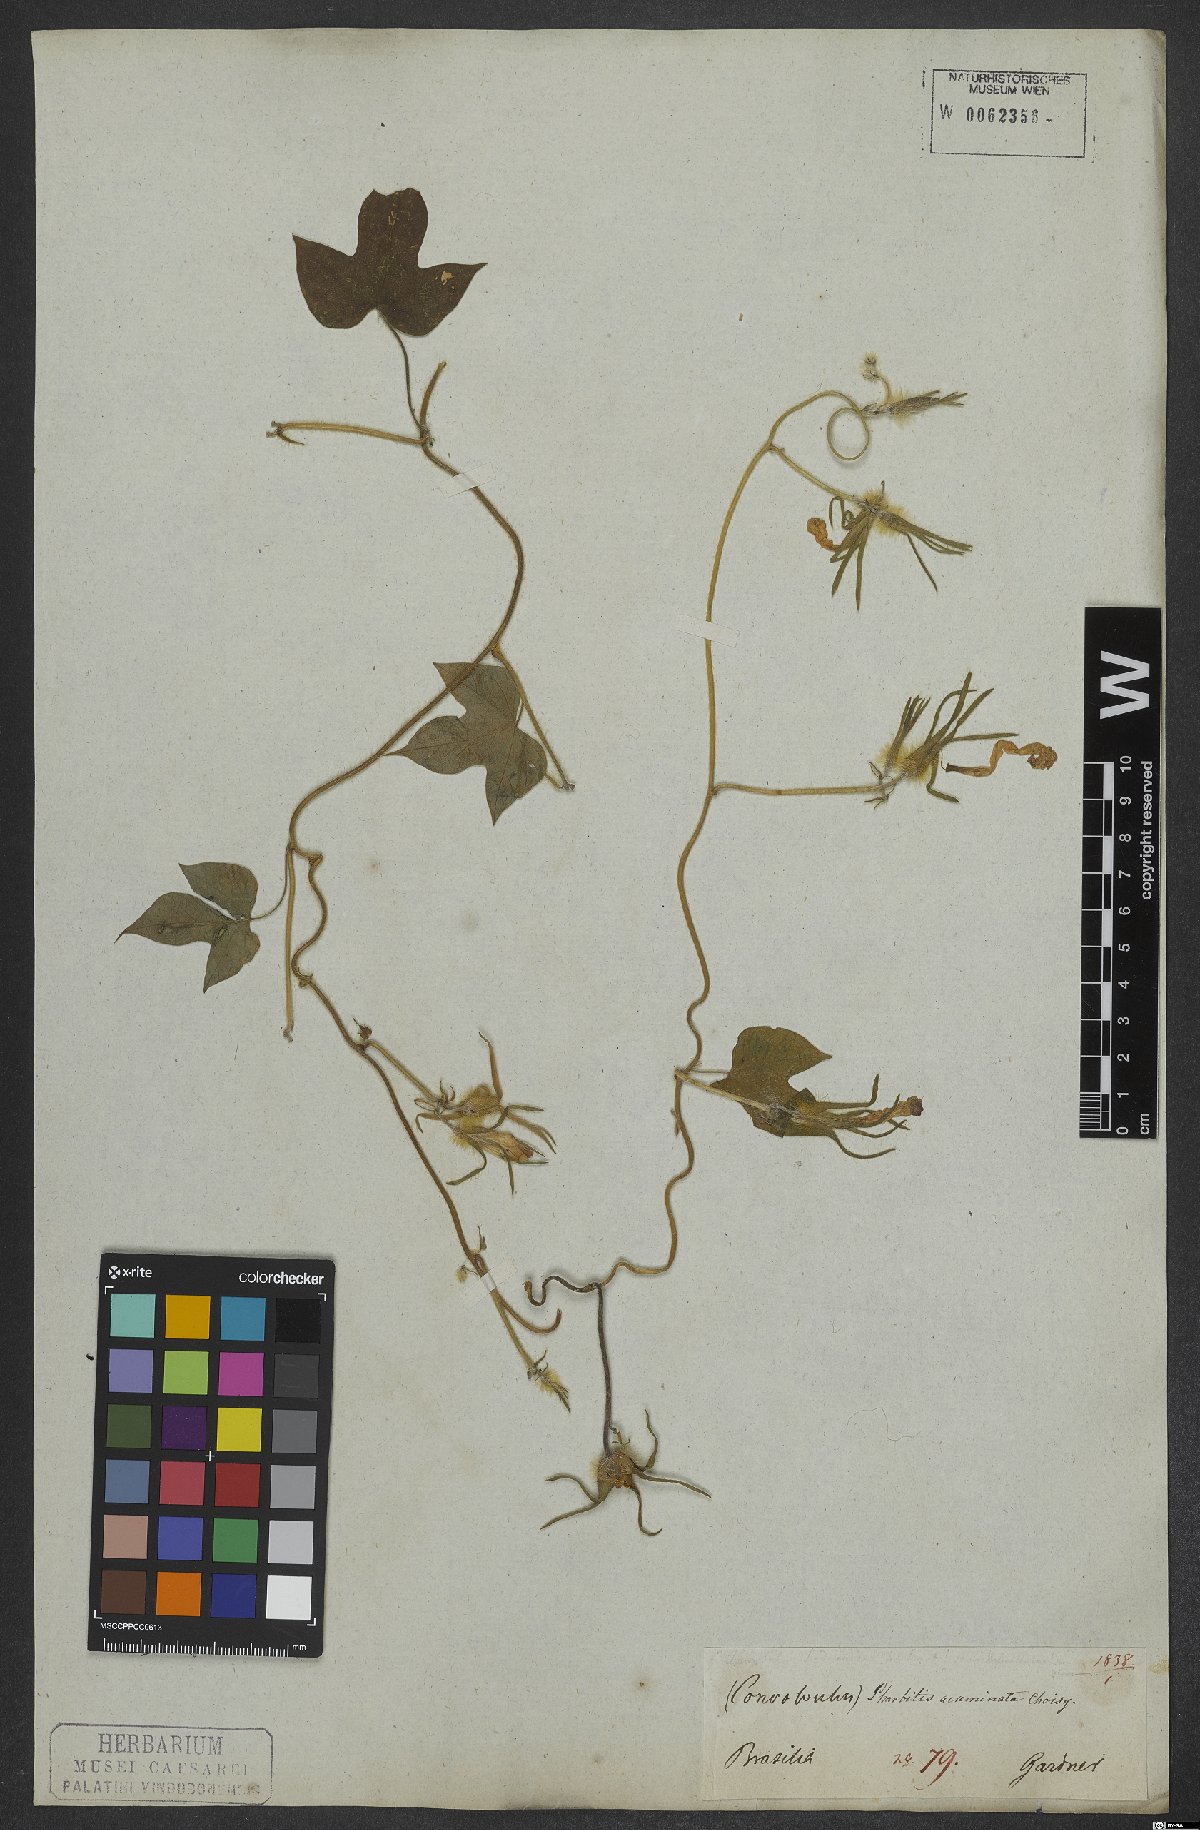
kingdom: Plantae
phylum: Tracheophyta
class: Magnoliopsida
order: Solanales
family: Convolvulaceae
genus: Merremia
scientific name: Merremia hederacea
